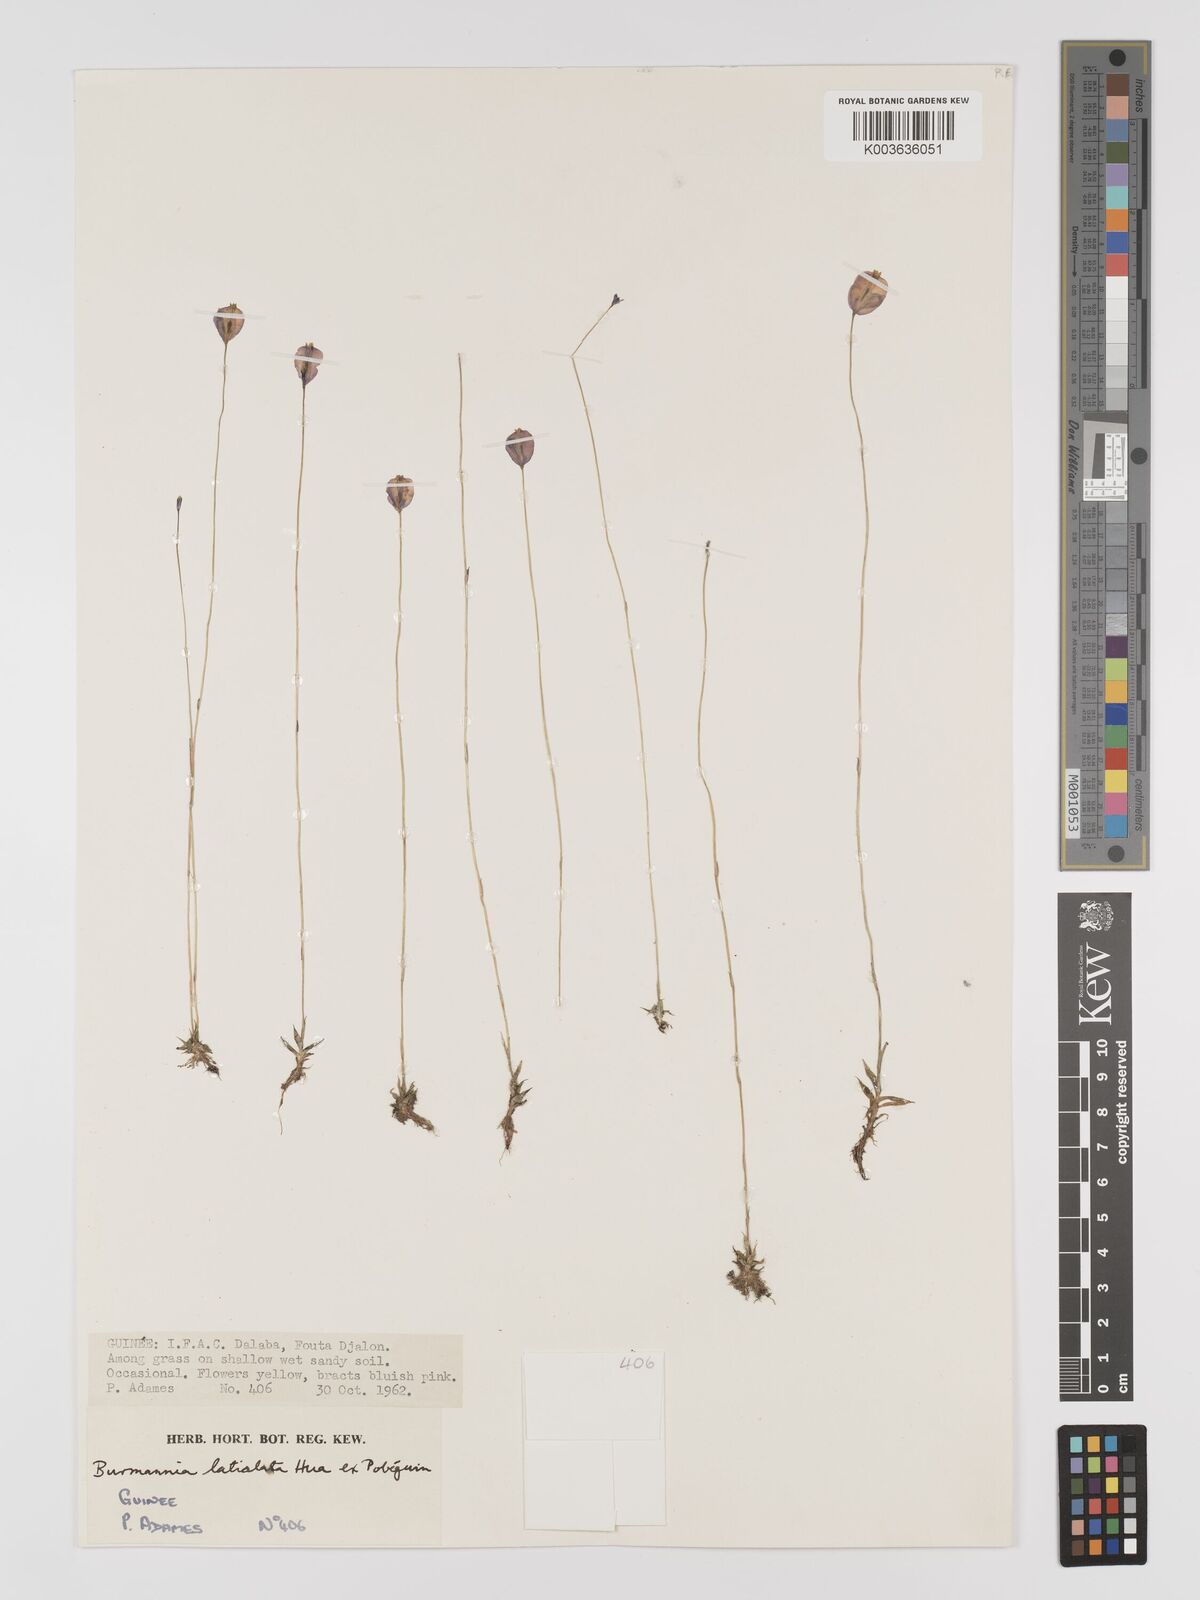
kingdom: Plantae
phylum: Tracheophyta
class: Liliopsida
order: Dioscoreales
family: Burmanniaceae
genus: Burmannia
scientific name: Burmannia madagascariensis
